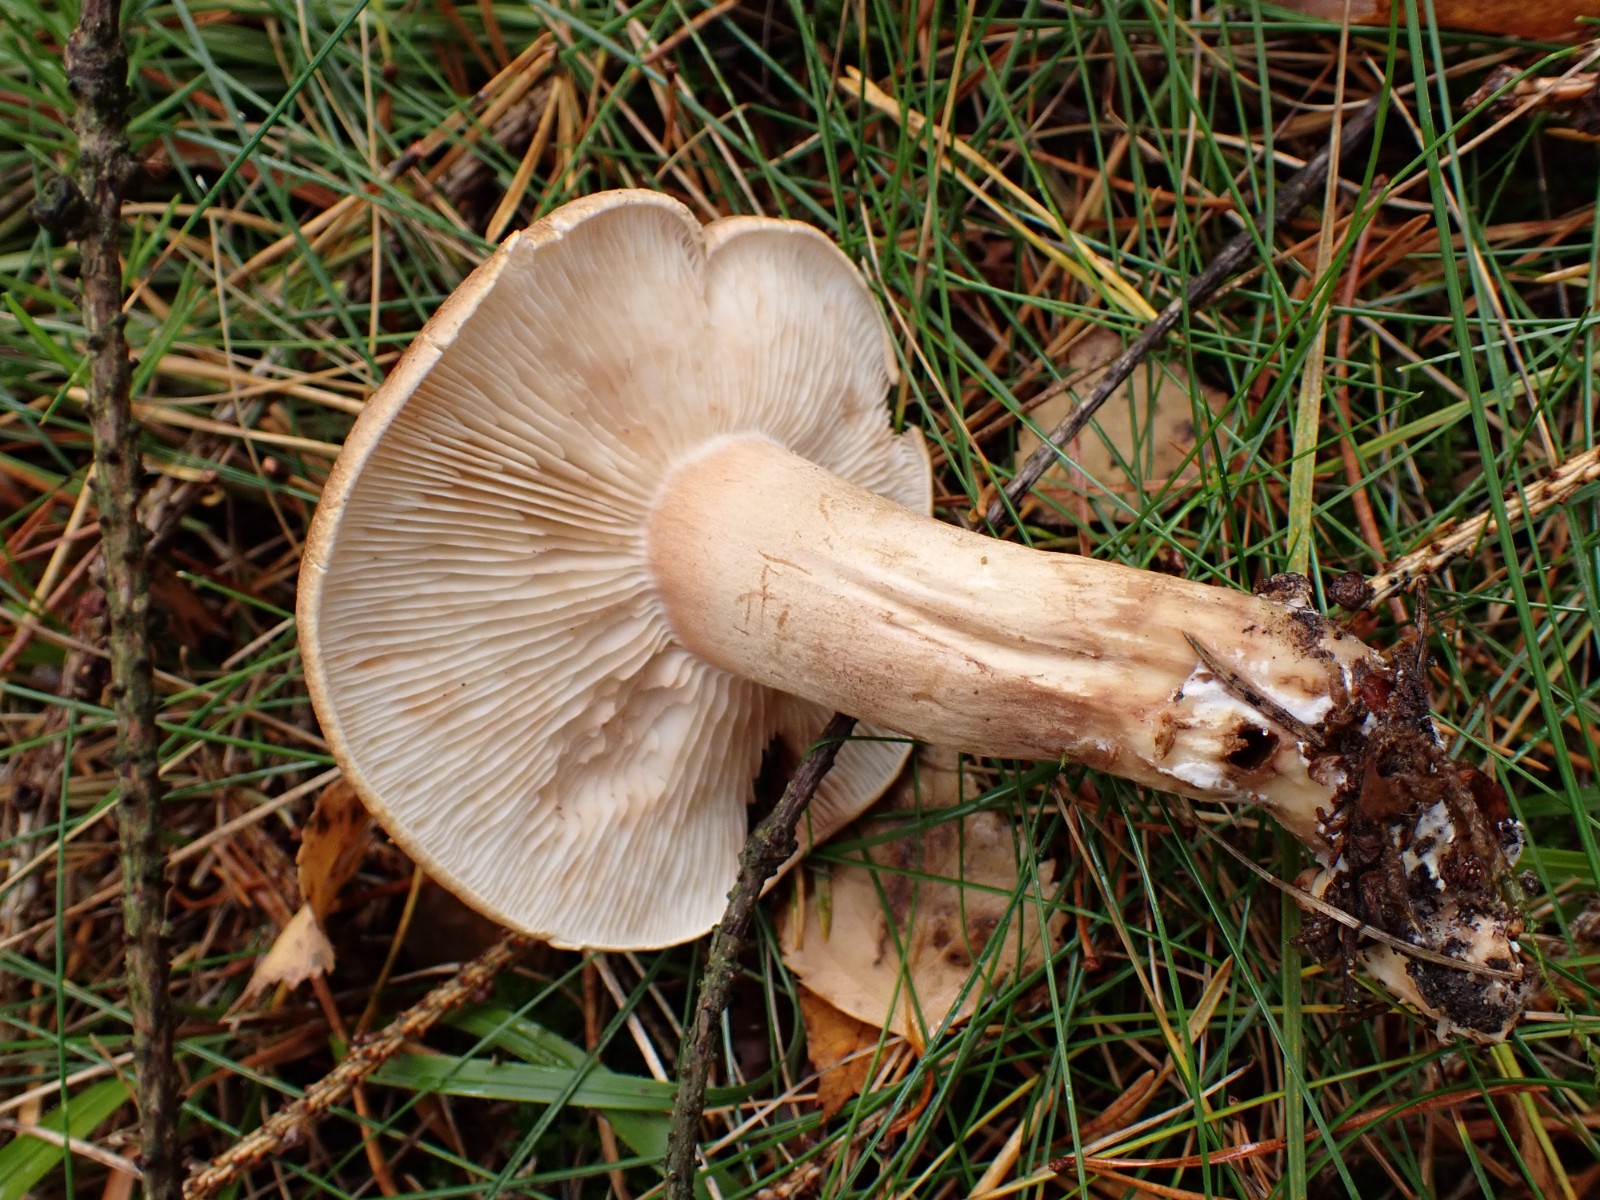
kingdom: Fungi
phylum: Basidiomycota
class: Agaricomycetes
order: Agaricales
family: Tricholomataceae
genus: Tricholoma
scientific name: Tricholoma imbricatum
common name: skællet ridderhat
